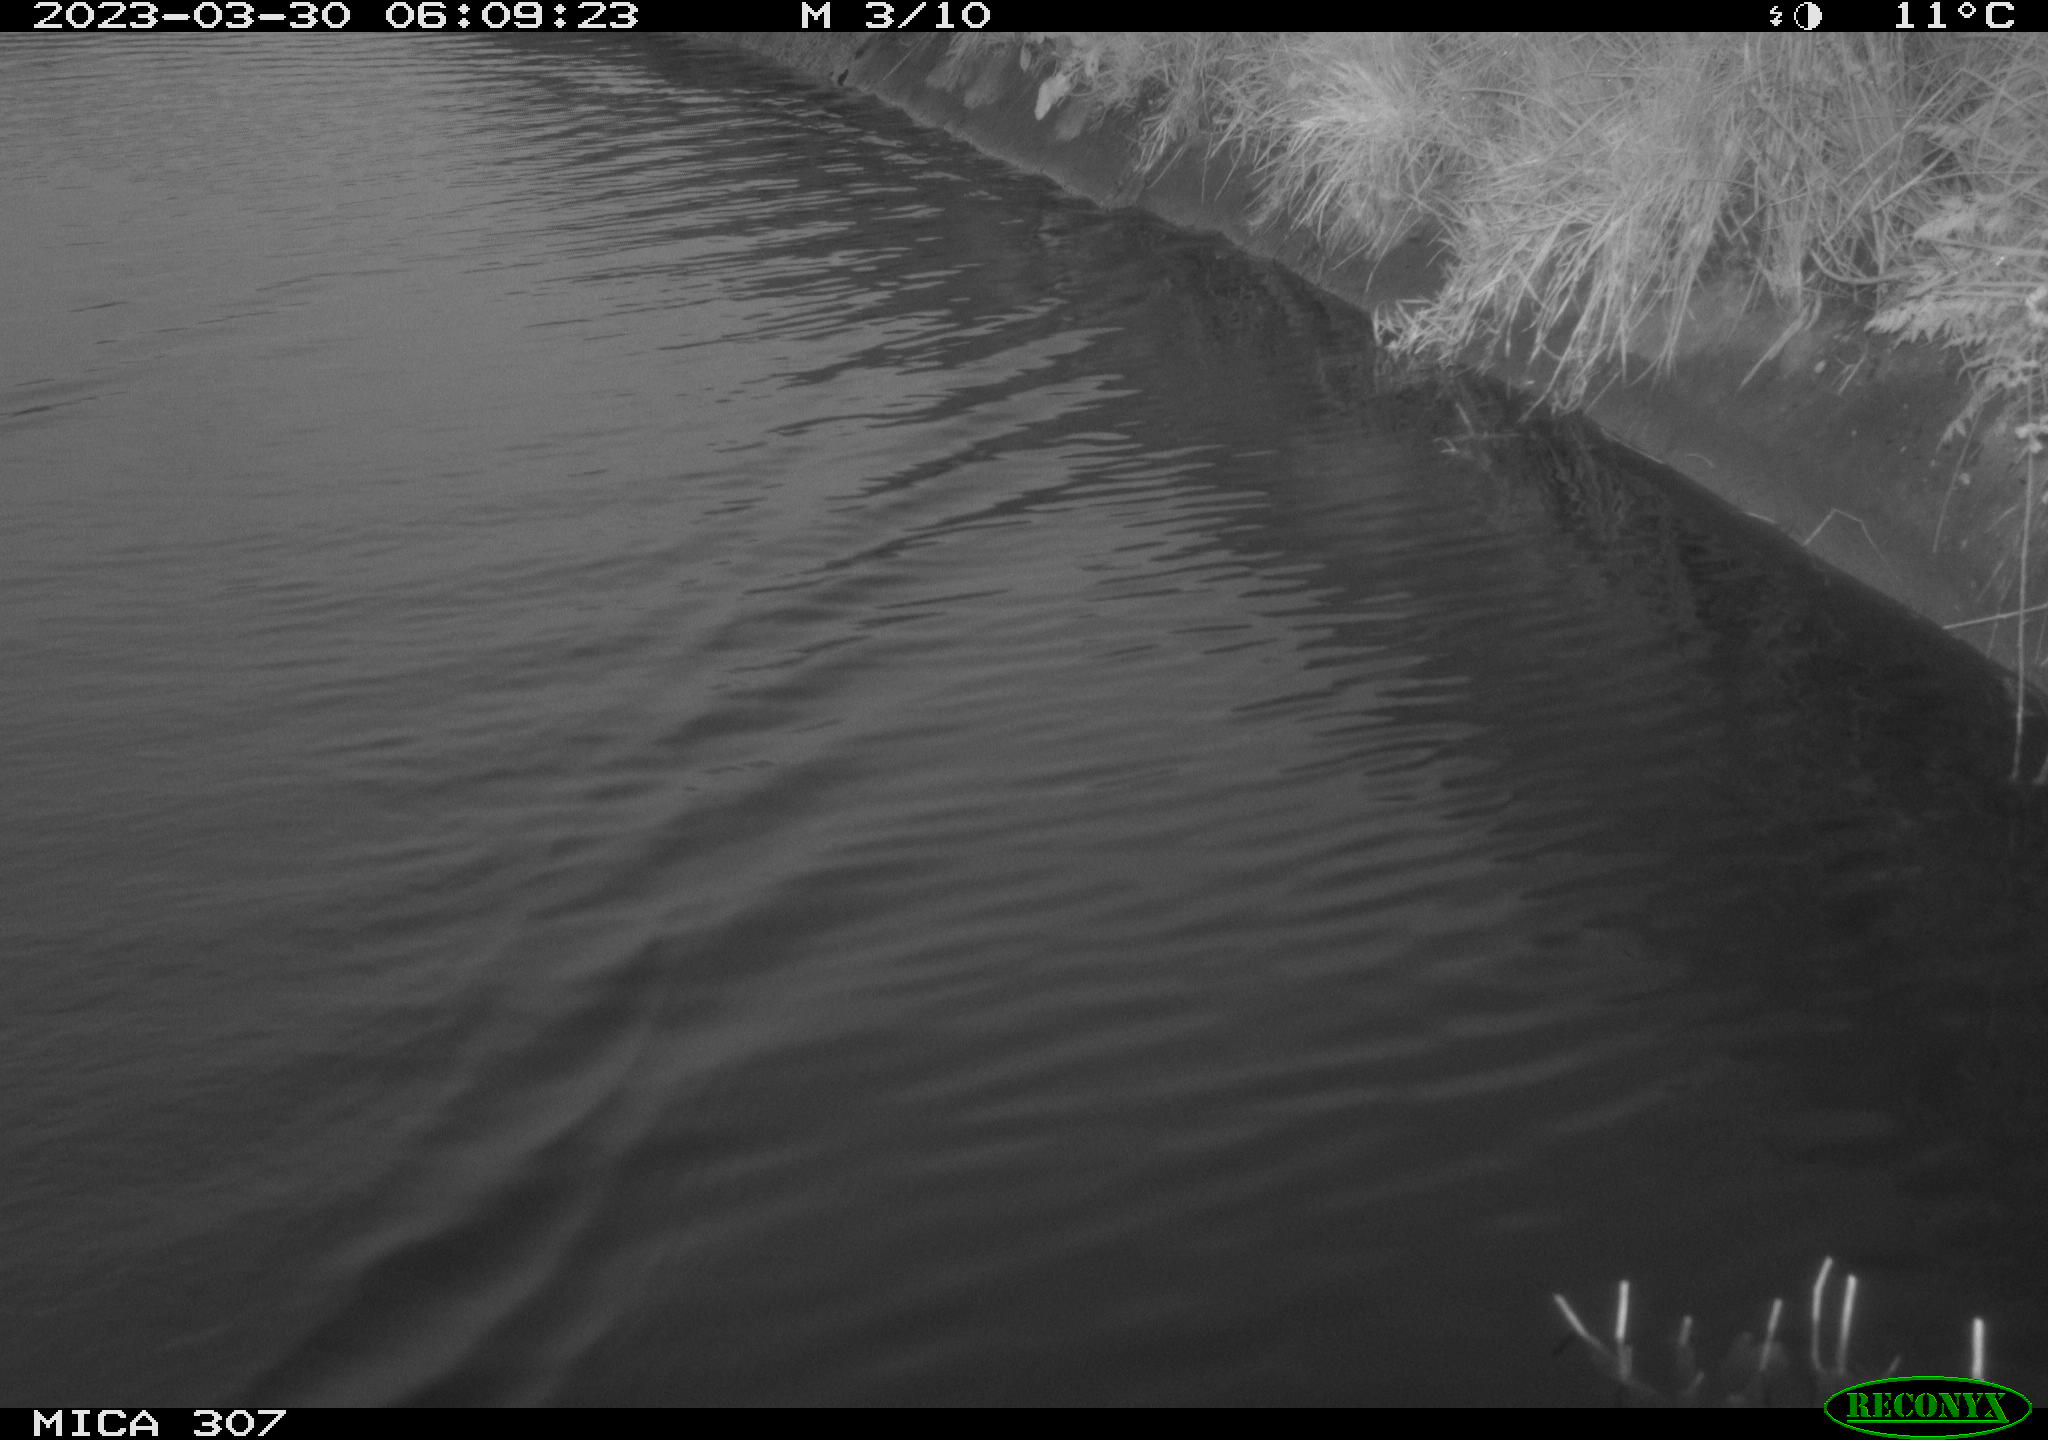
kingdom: Animalia
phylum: Chordata
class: Aves
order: Anseriformes
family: Anatidae
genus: Anas
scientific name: Anas
